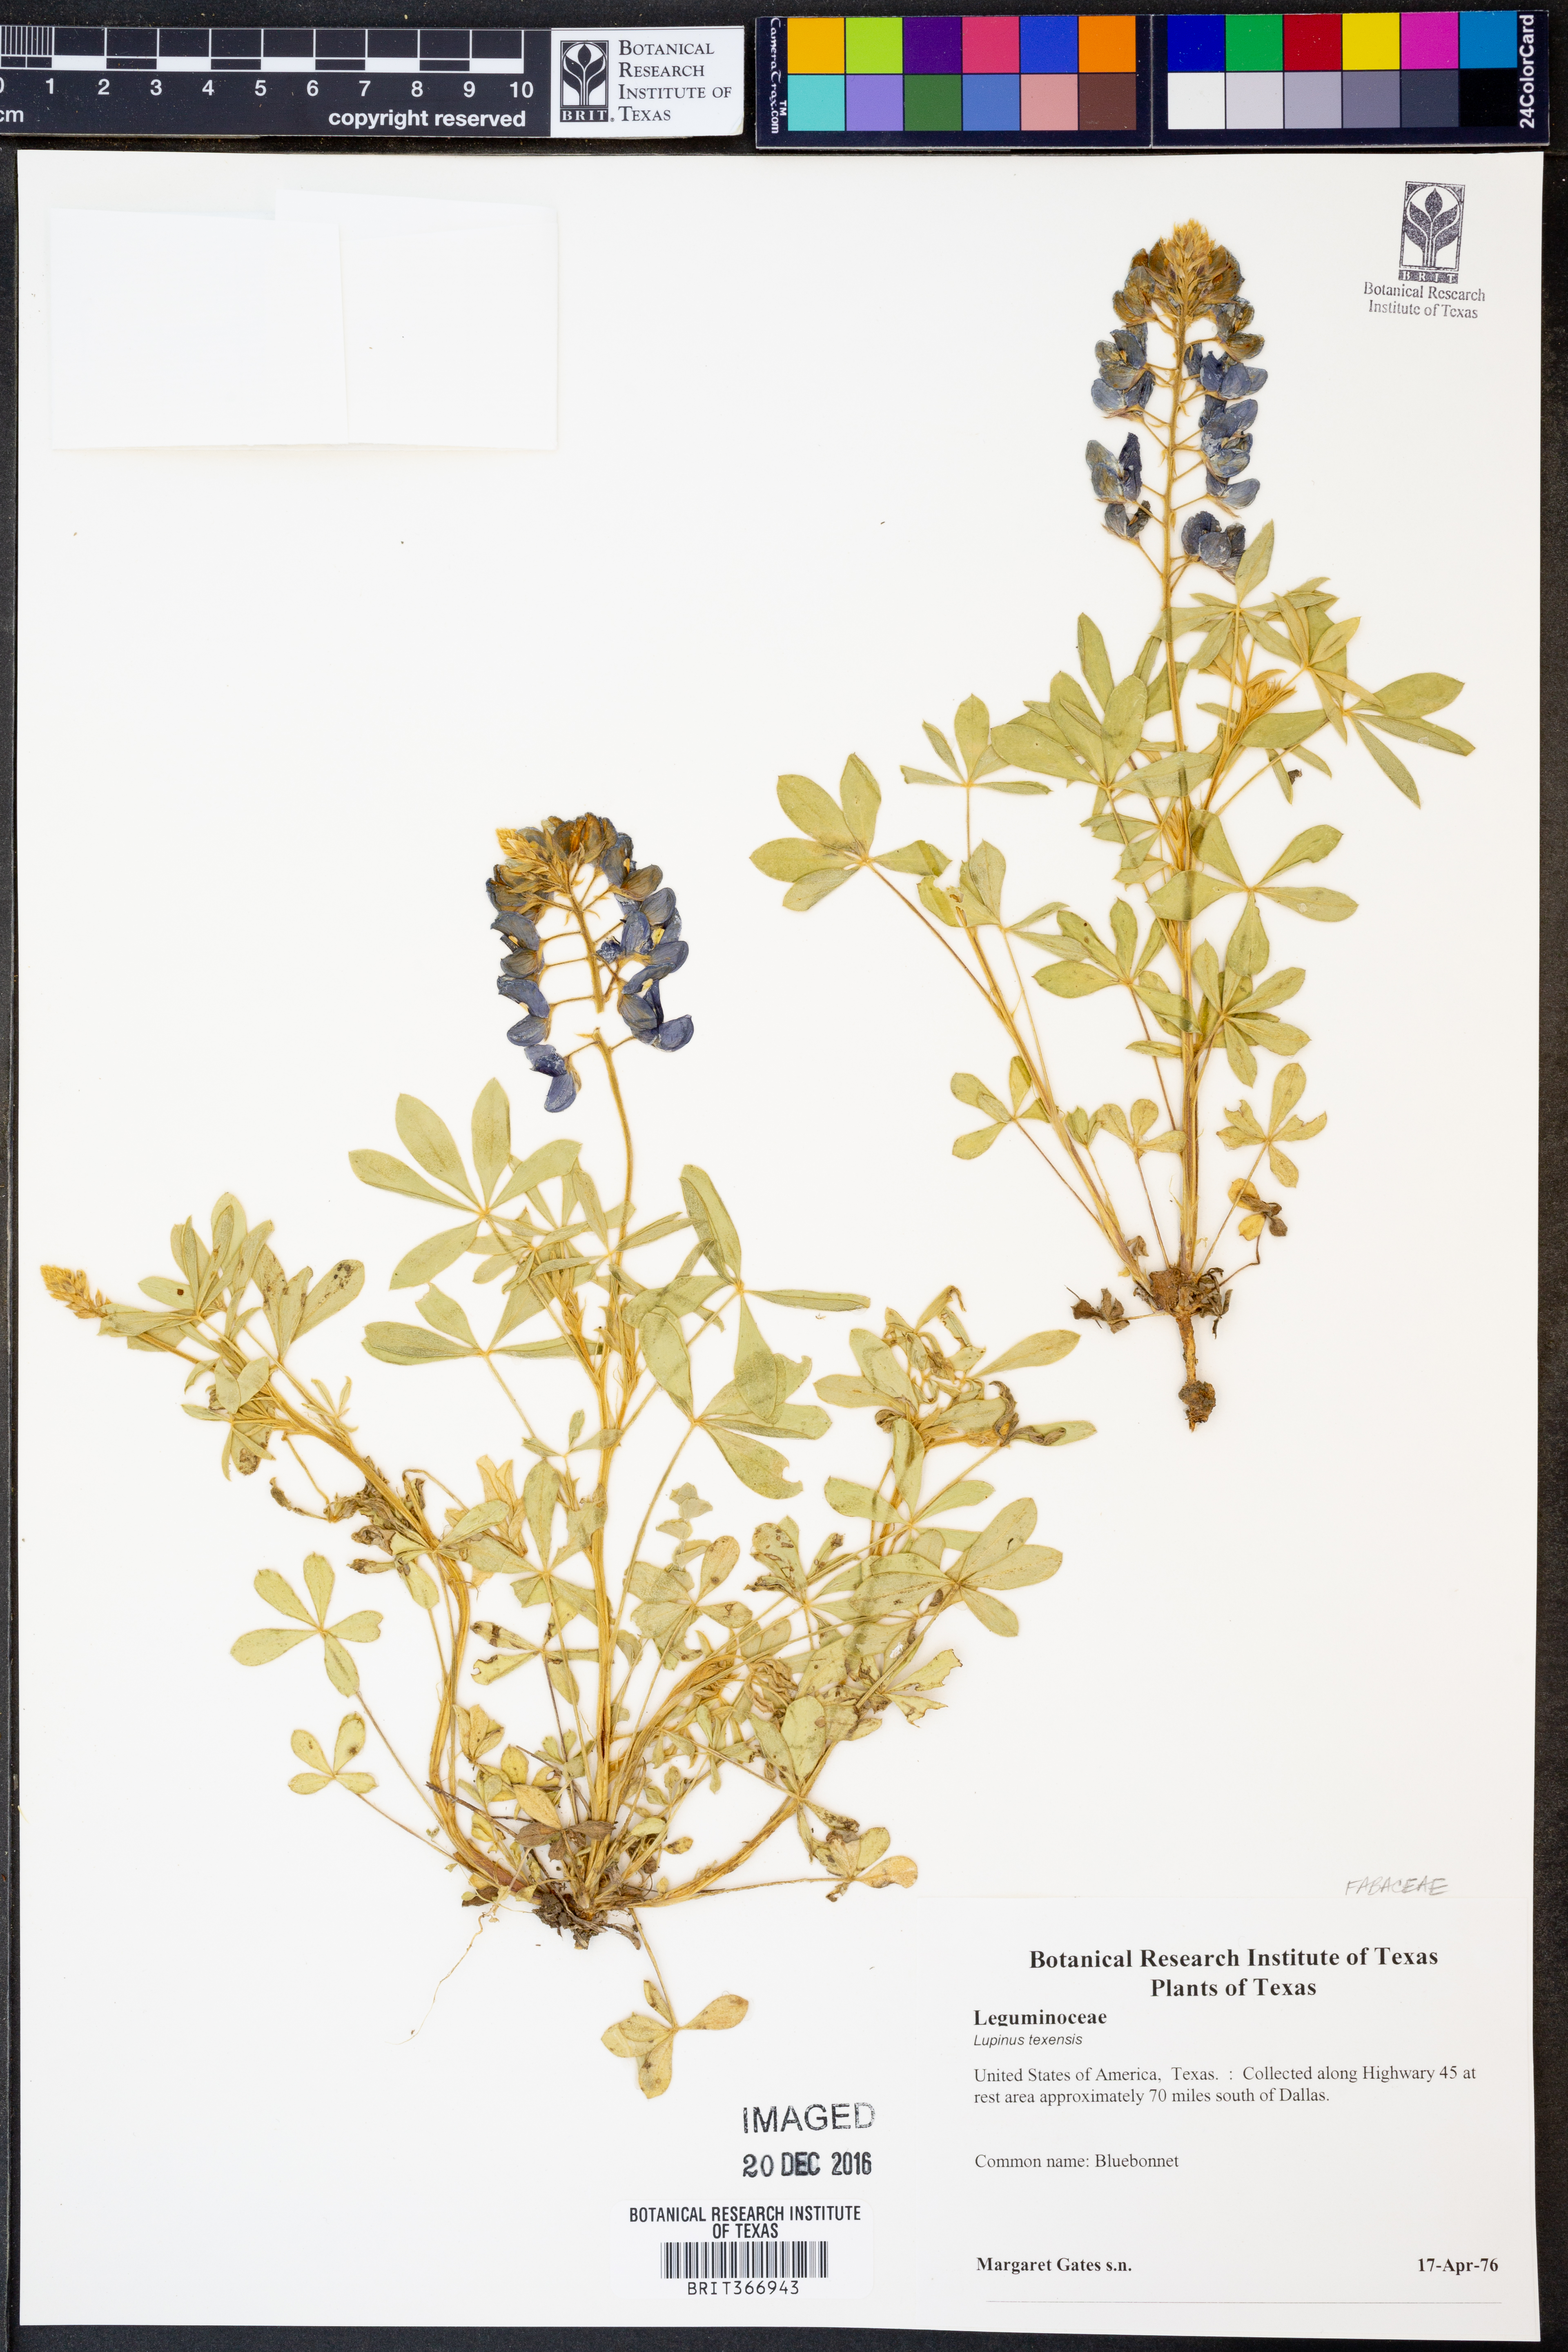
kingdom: Plantae
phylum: Tracheophyta
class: Magnoliopsida
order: Fabales
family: Fabaceae
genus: Lupinus
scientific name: Lupinus texensis
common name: Texas bluebonnet
